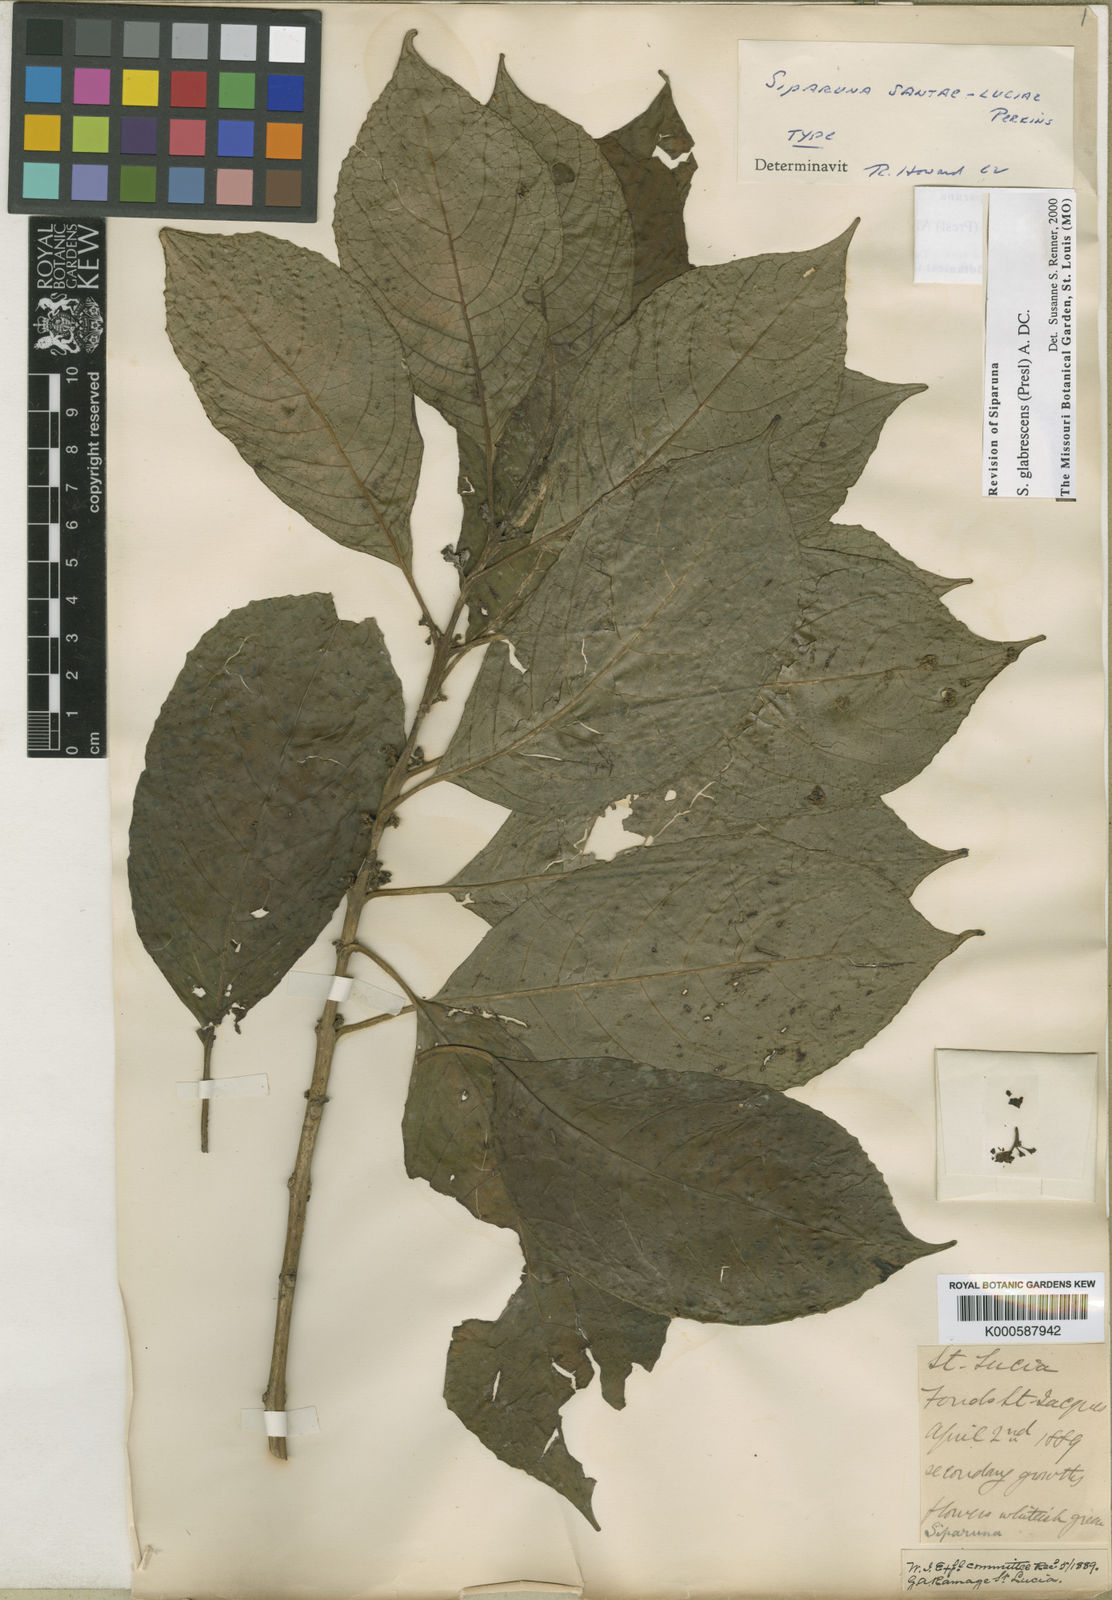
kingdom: Plantae
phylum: Tracheophyta
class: Magnoliopsida
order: Laurales
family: Siparunaceae
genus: Siparuna
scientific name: Siparuna glabrescens
